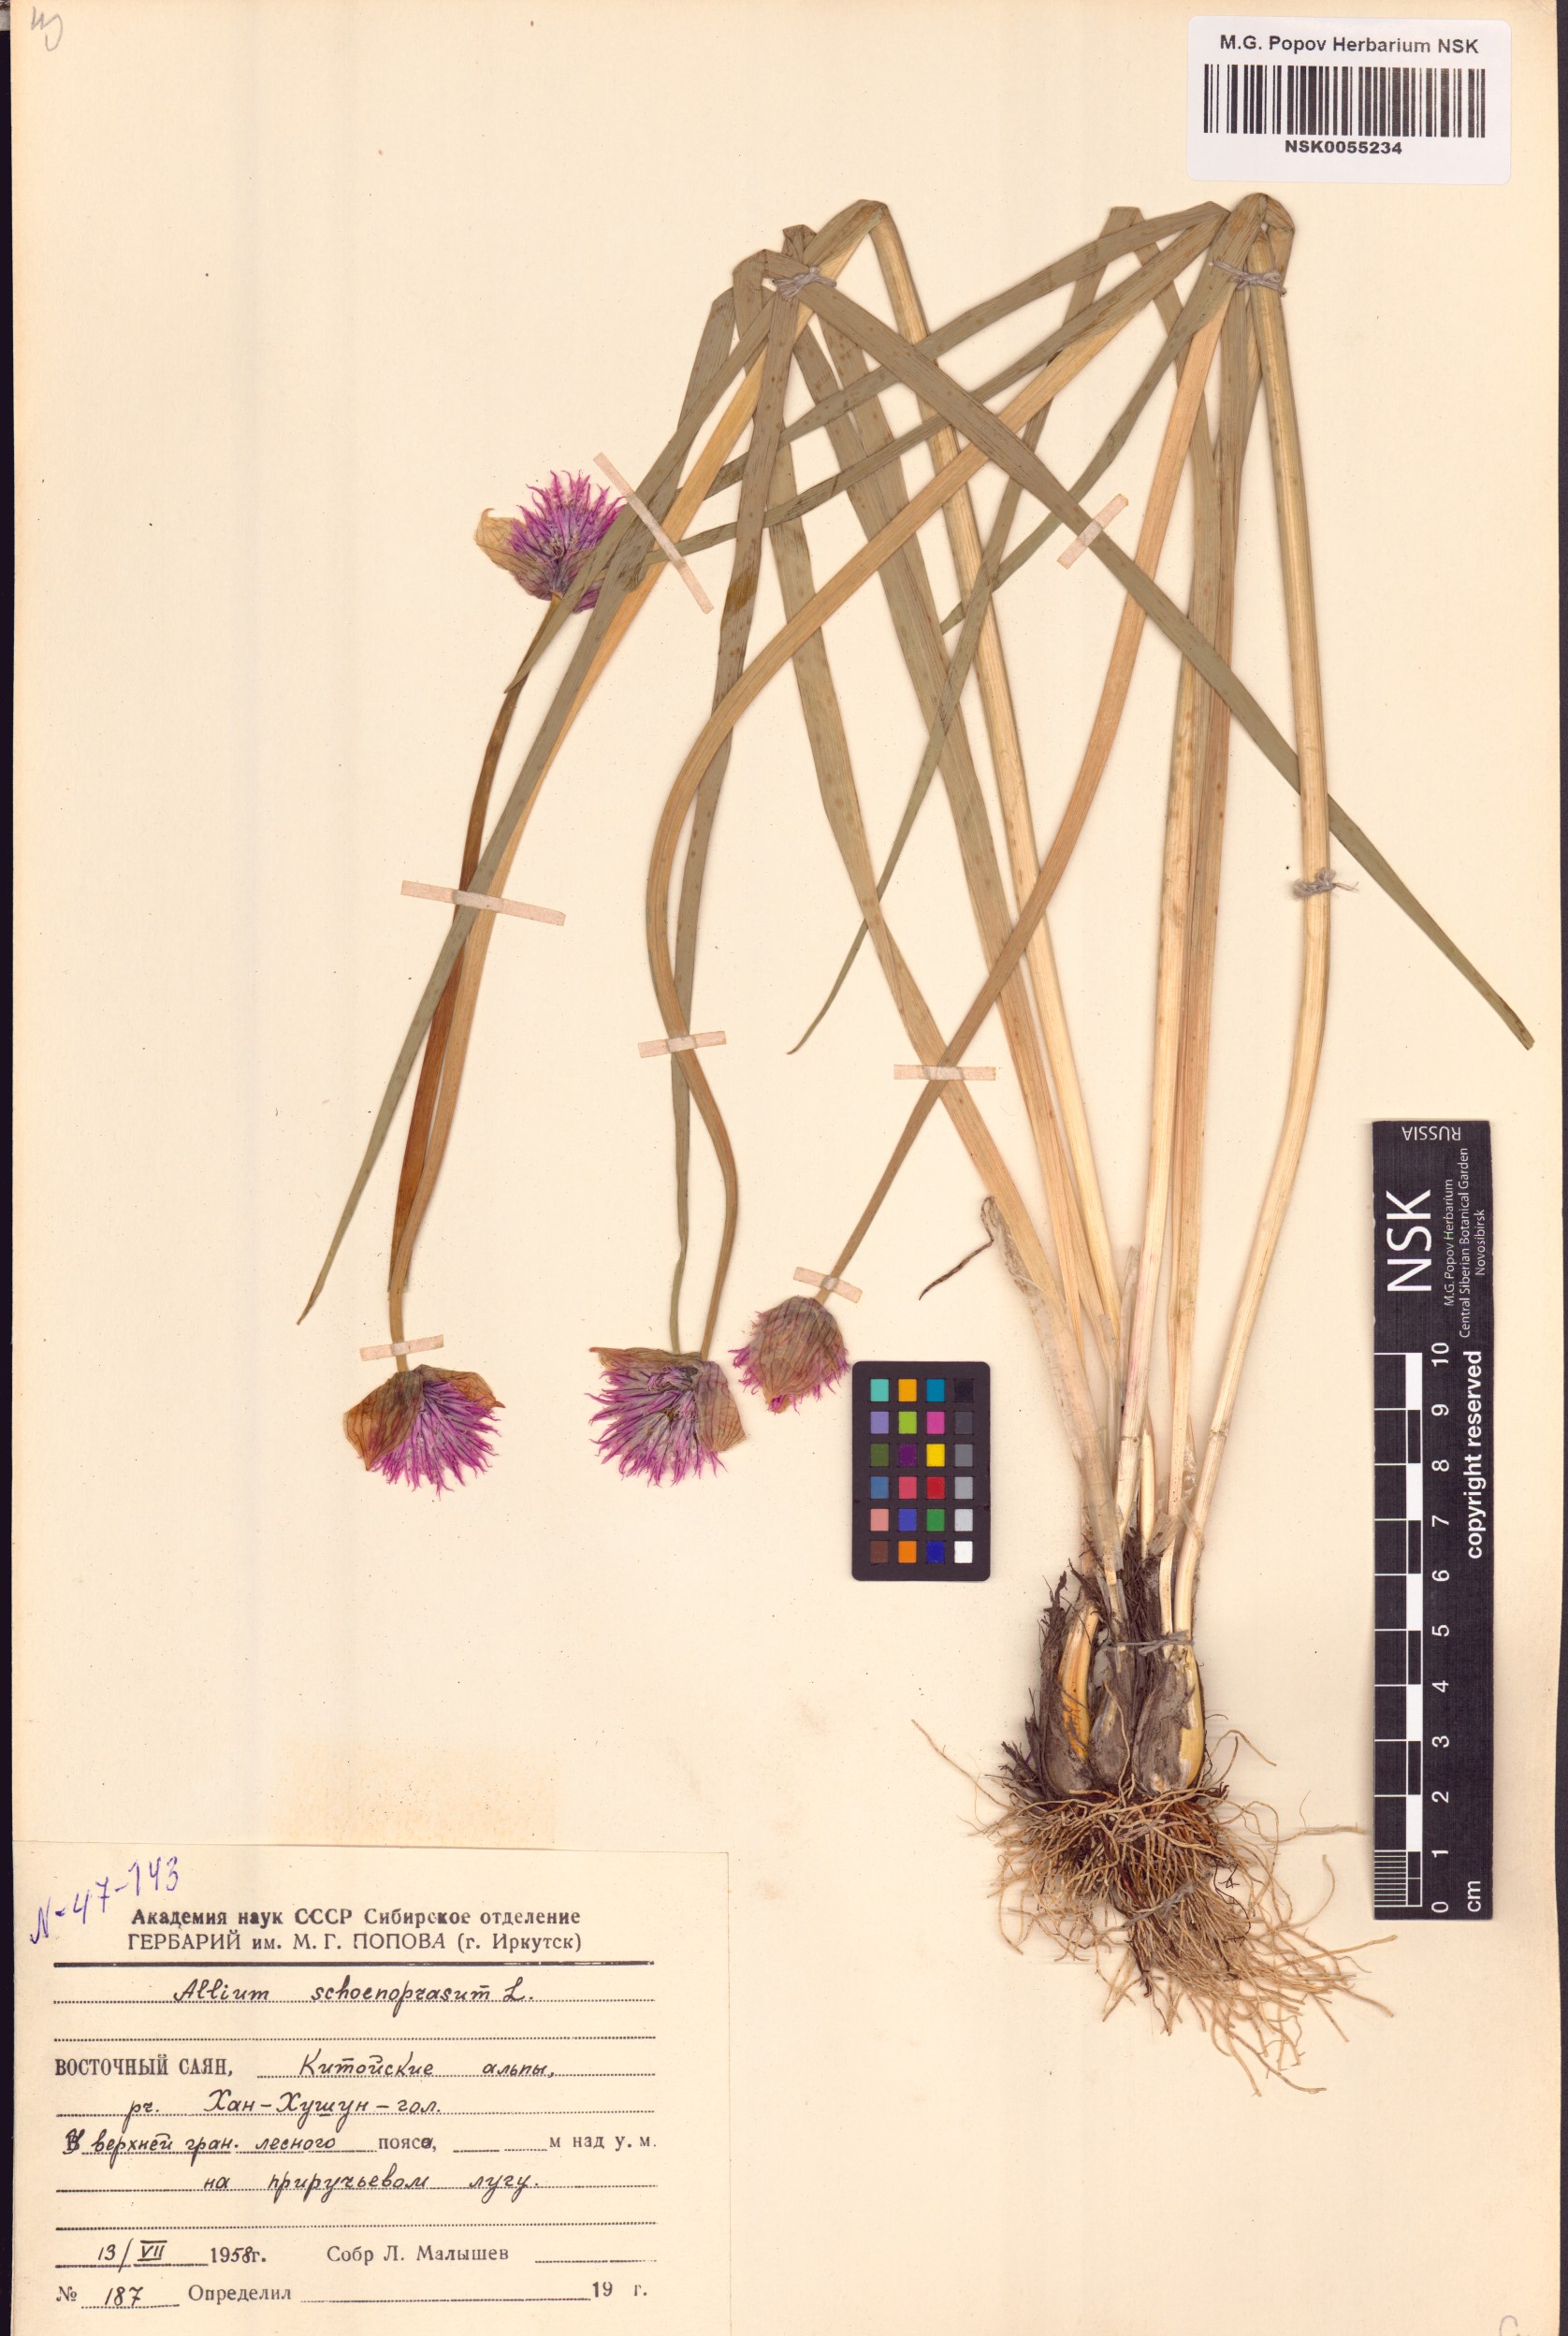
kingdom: Plantae
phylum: Tracheophyta
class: Liliopsida
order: Asparagales
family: Amaryllidaceae
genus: Allium
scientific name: Allium schoenoprasum
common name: Chives
